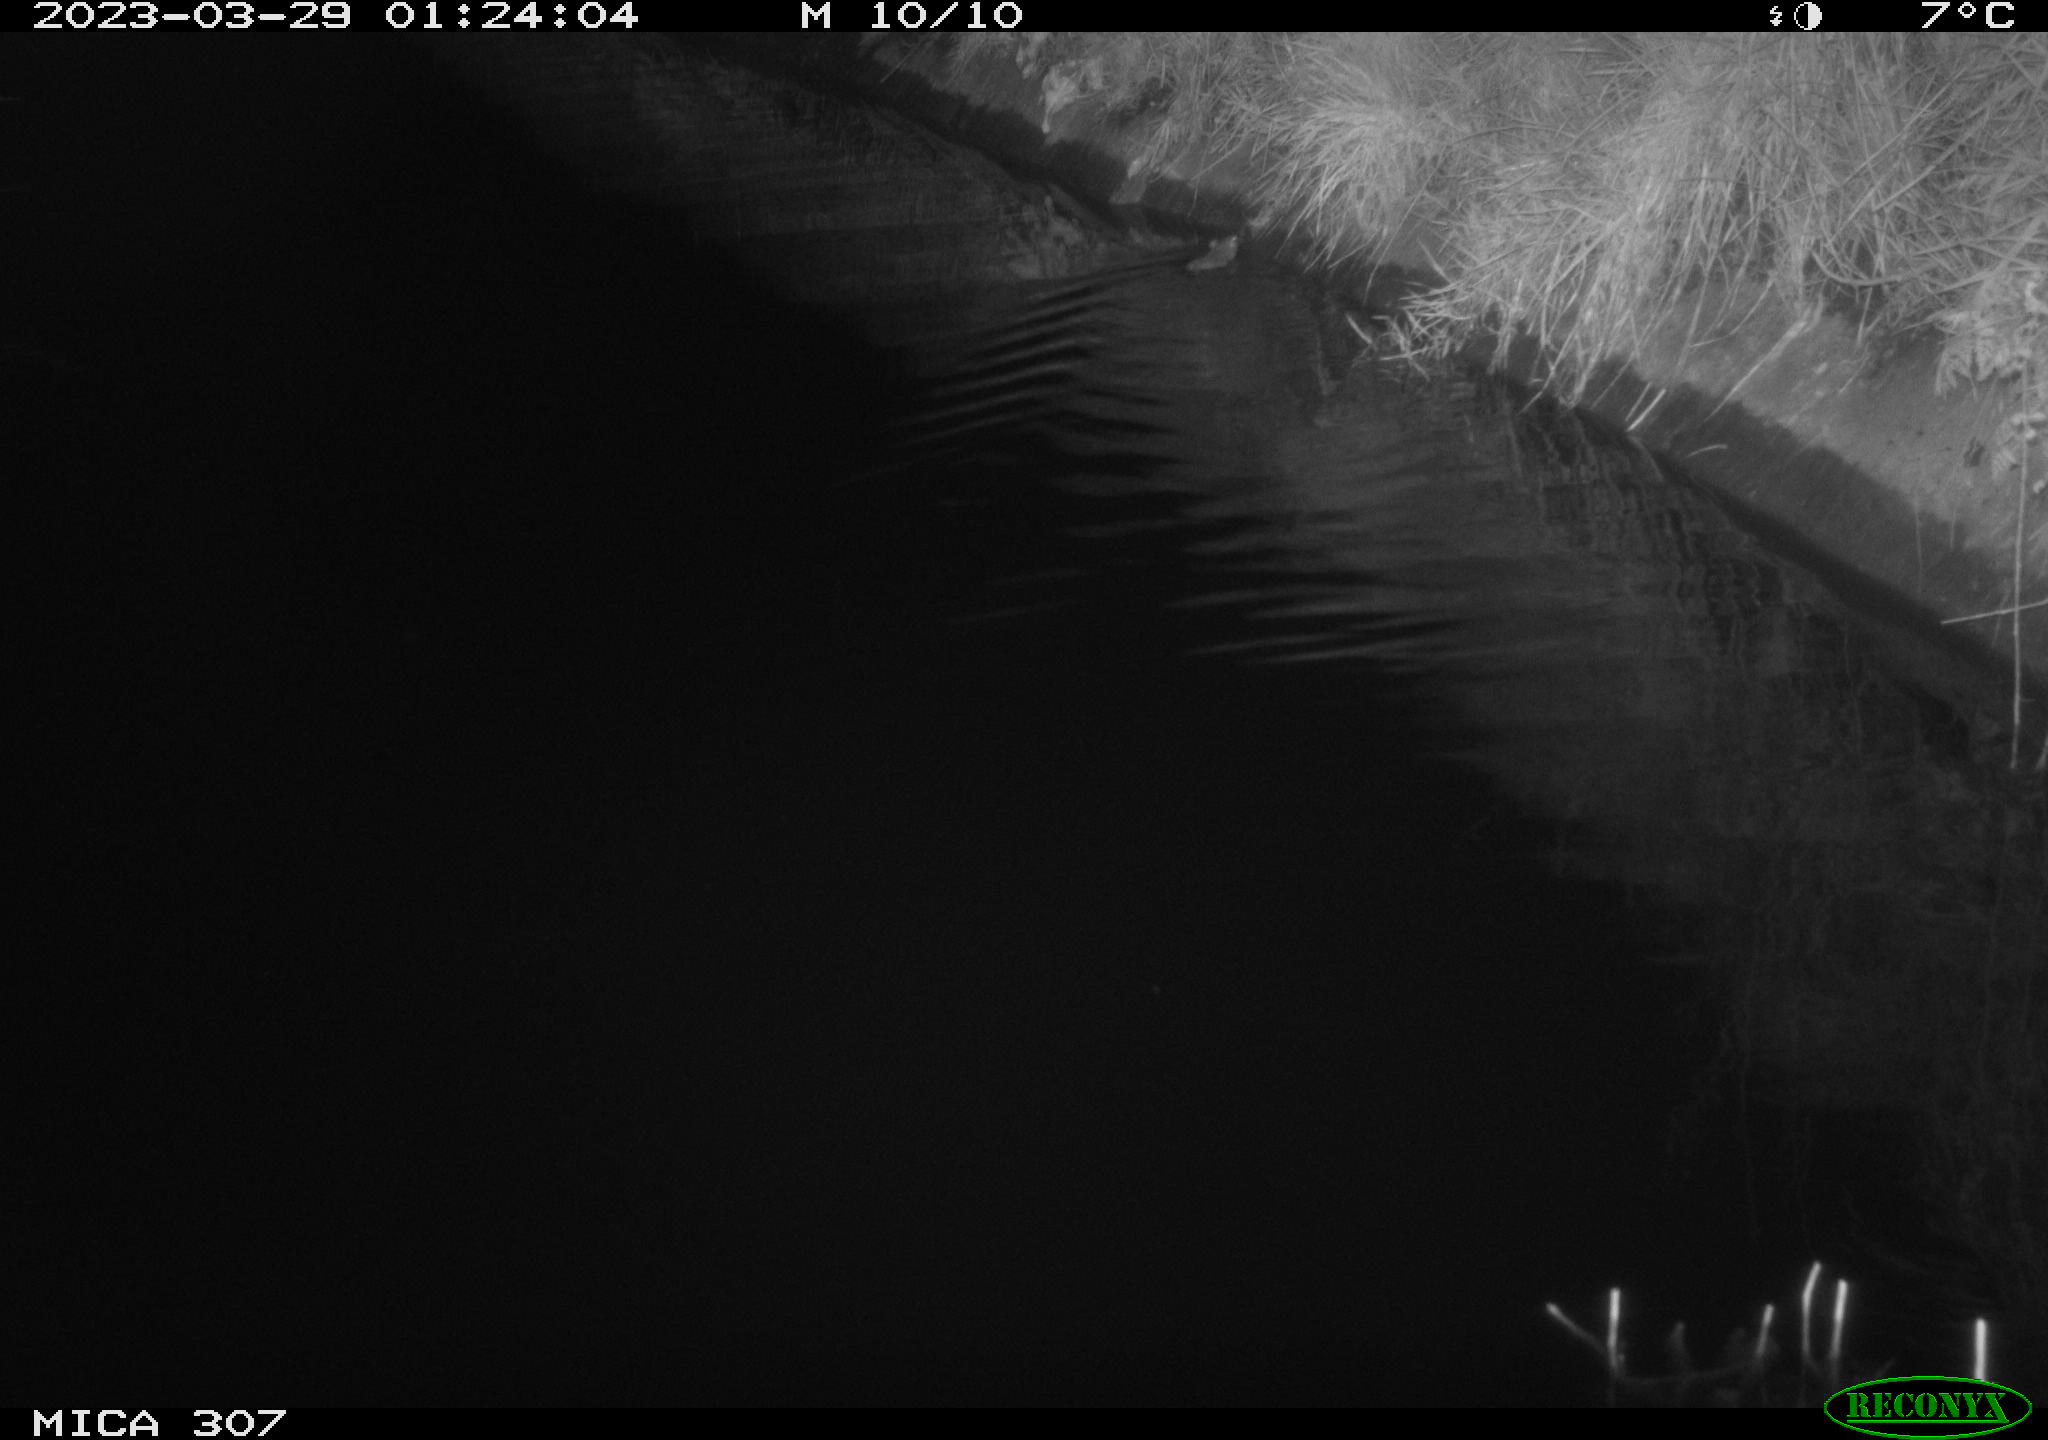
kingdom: Animalia
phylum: Chordata
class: Mammalia
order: Rodentia
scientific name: Rodentia
